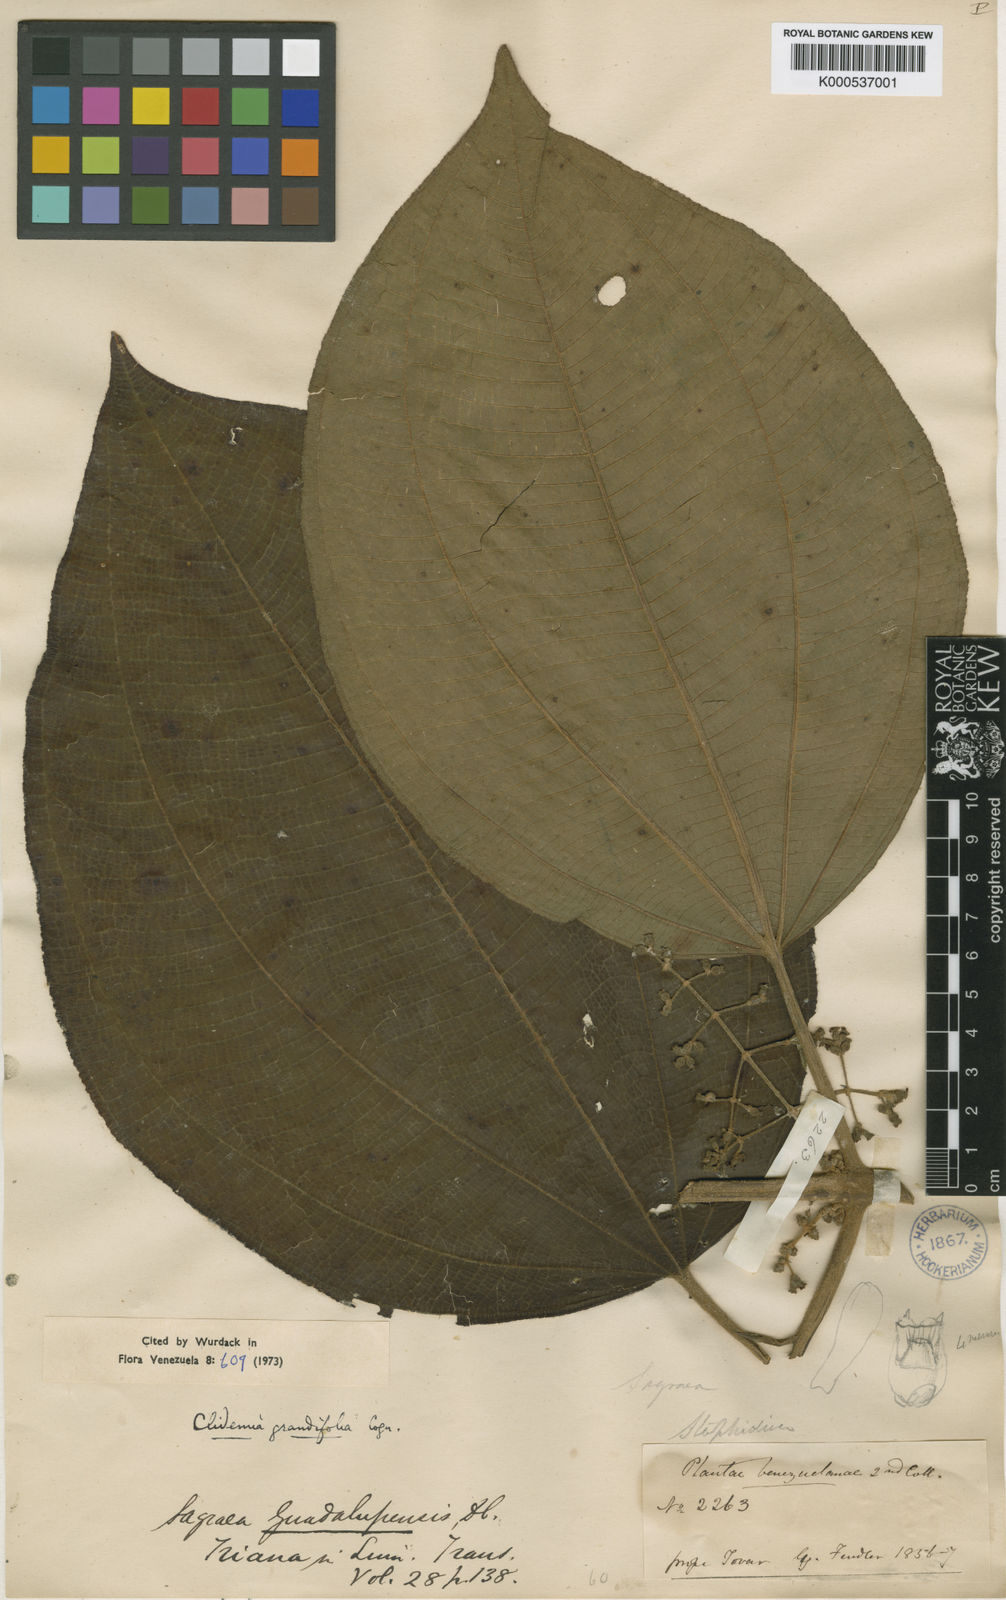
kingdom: Plantae
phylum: Tracheophyta
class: Magnoliopsida
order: Myrtales
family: Melastomataceae
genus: Miconia
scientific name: Miconia badilloi
